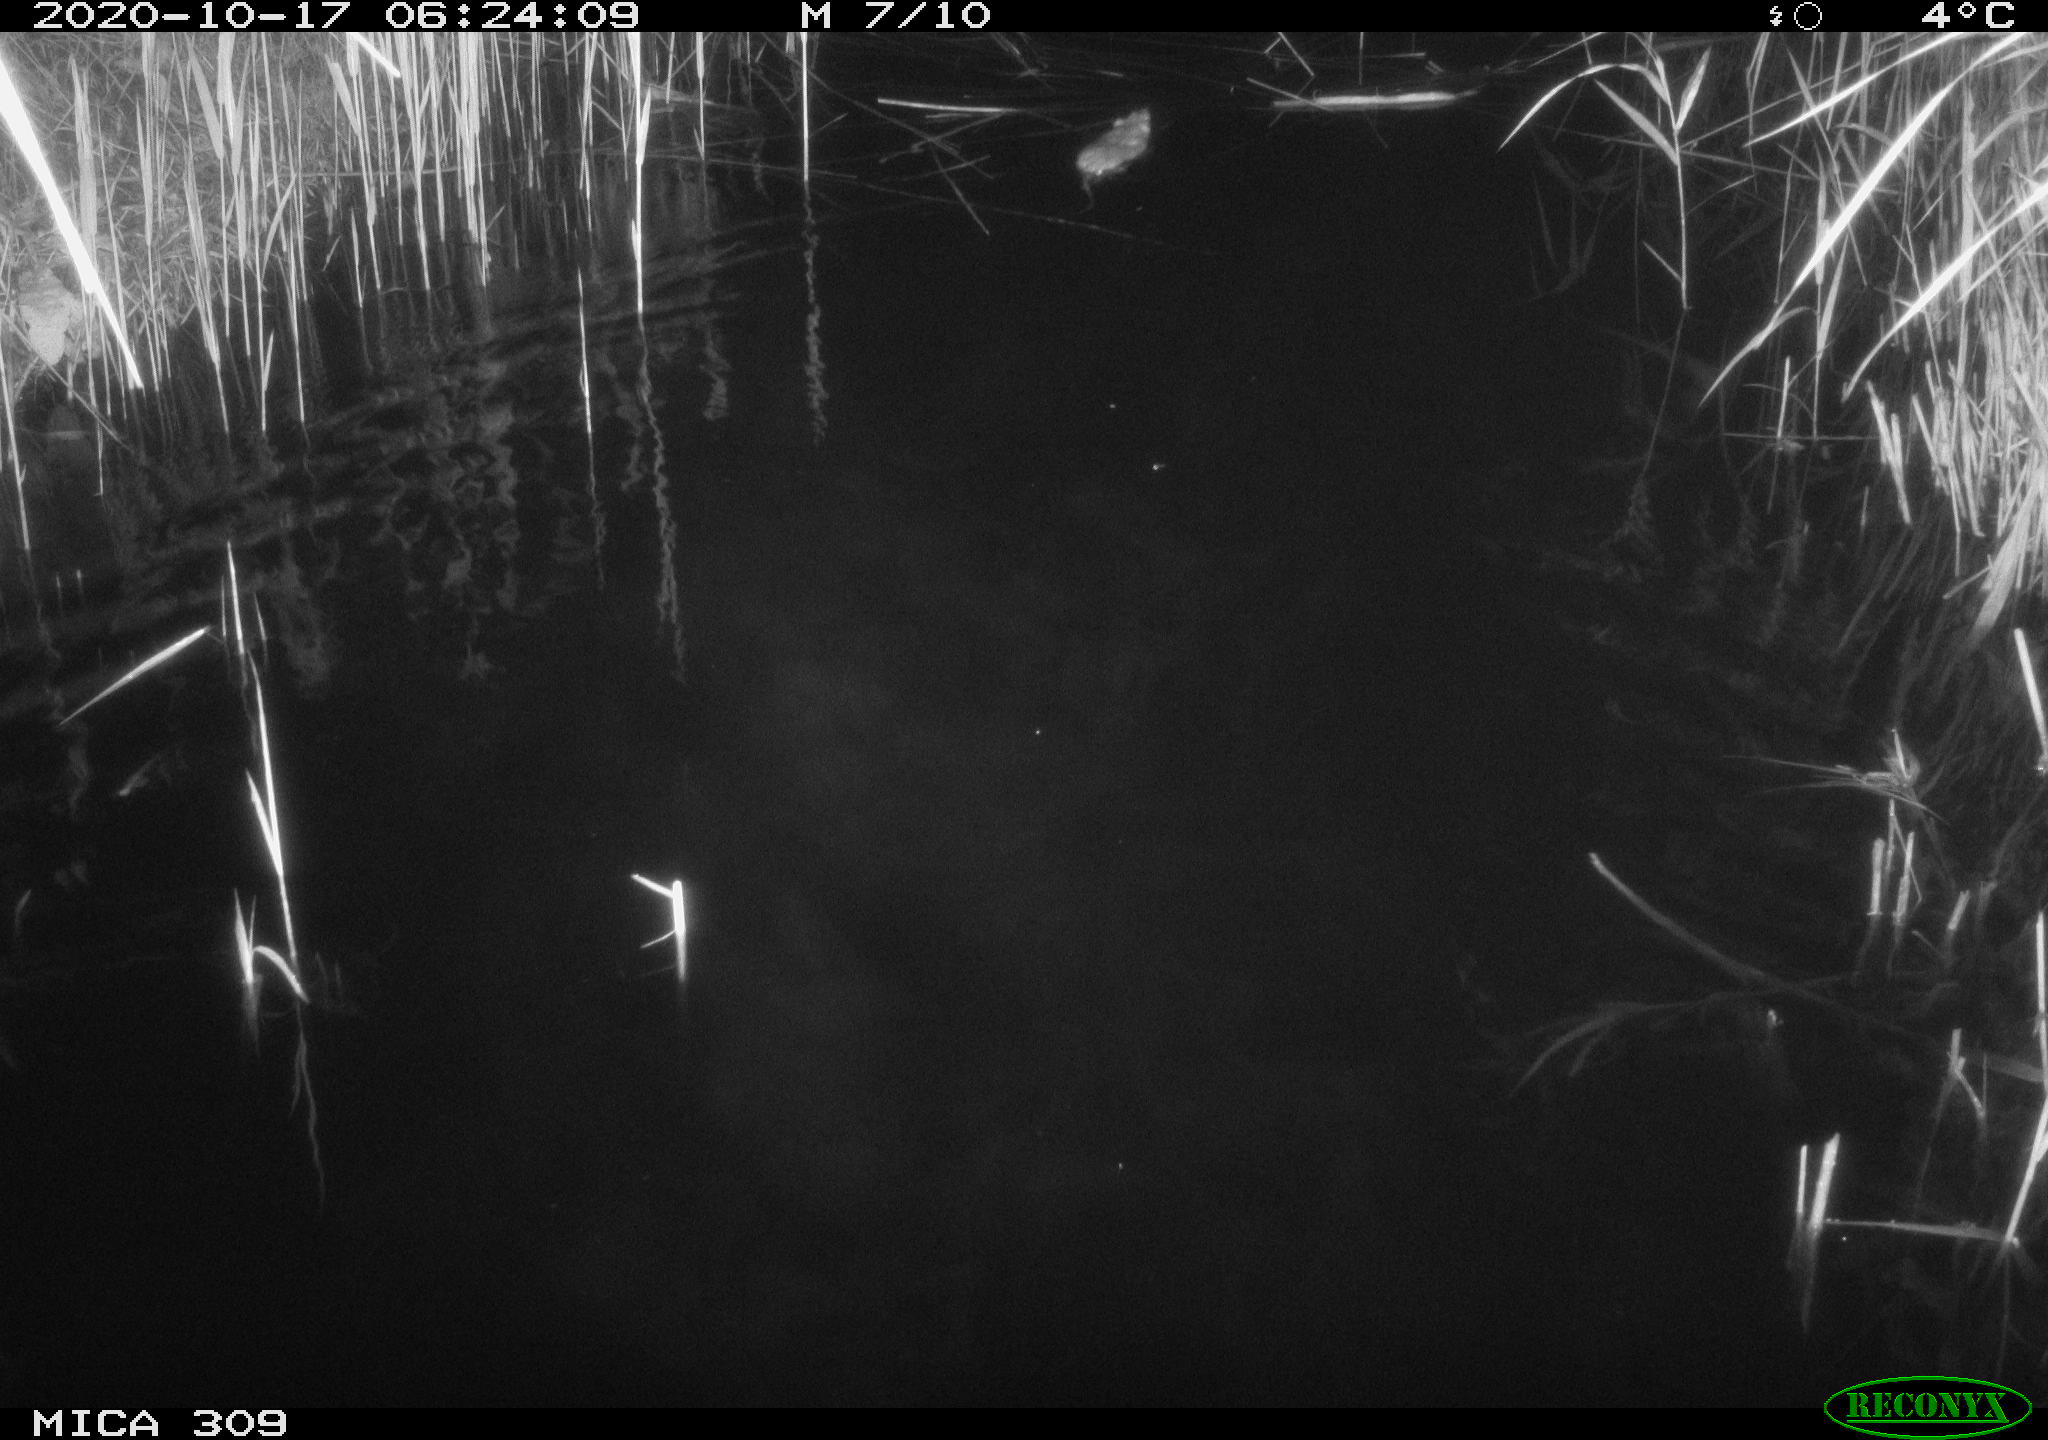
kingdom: Animalia
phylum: Chordata
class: Mammalia
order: Rodentia
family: Muridae
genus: Rattus
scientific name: Rattus norvegicus
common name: Brown rat
